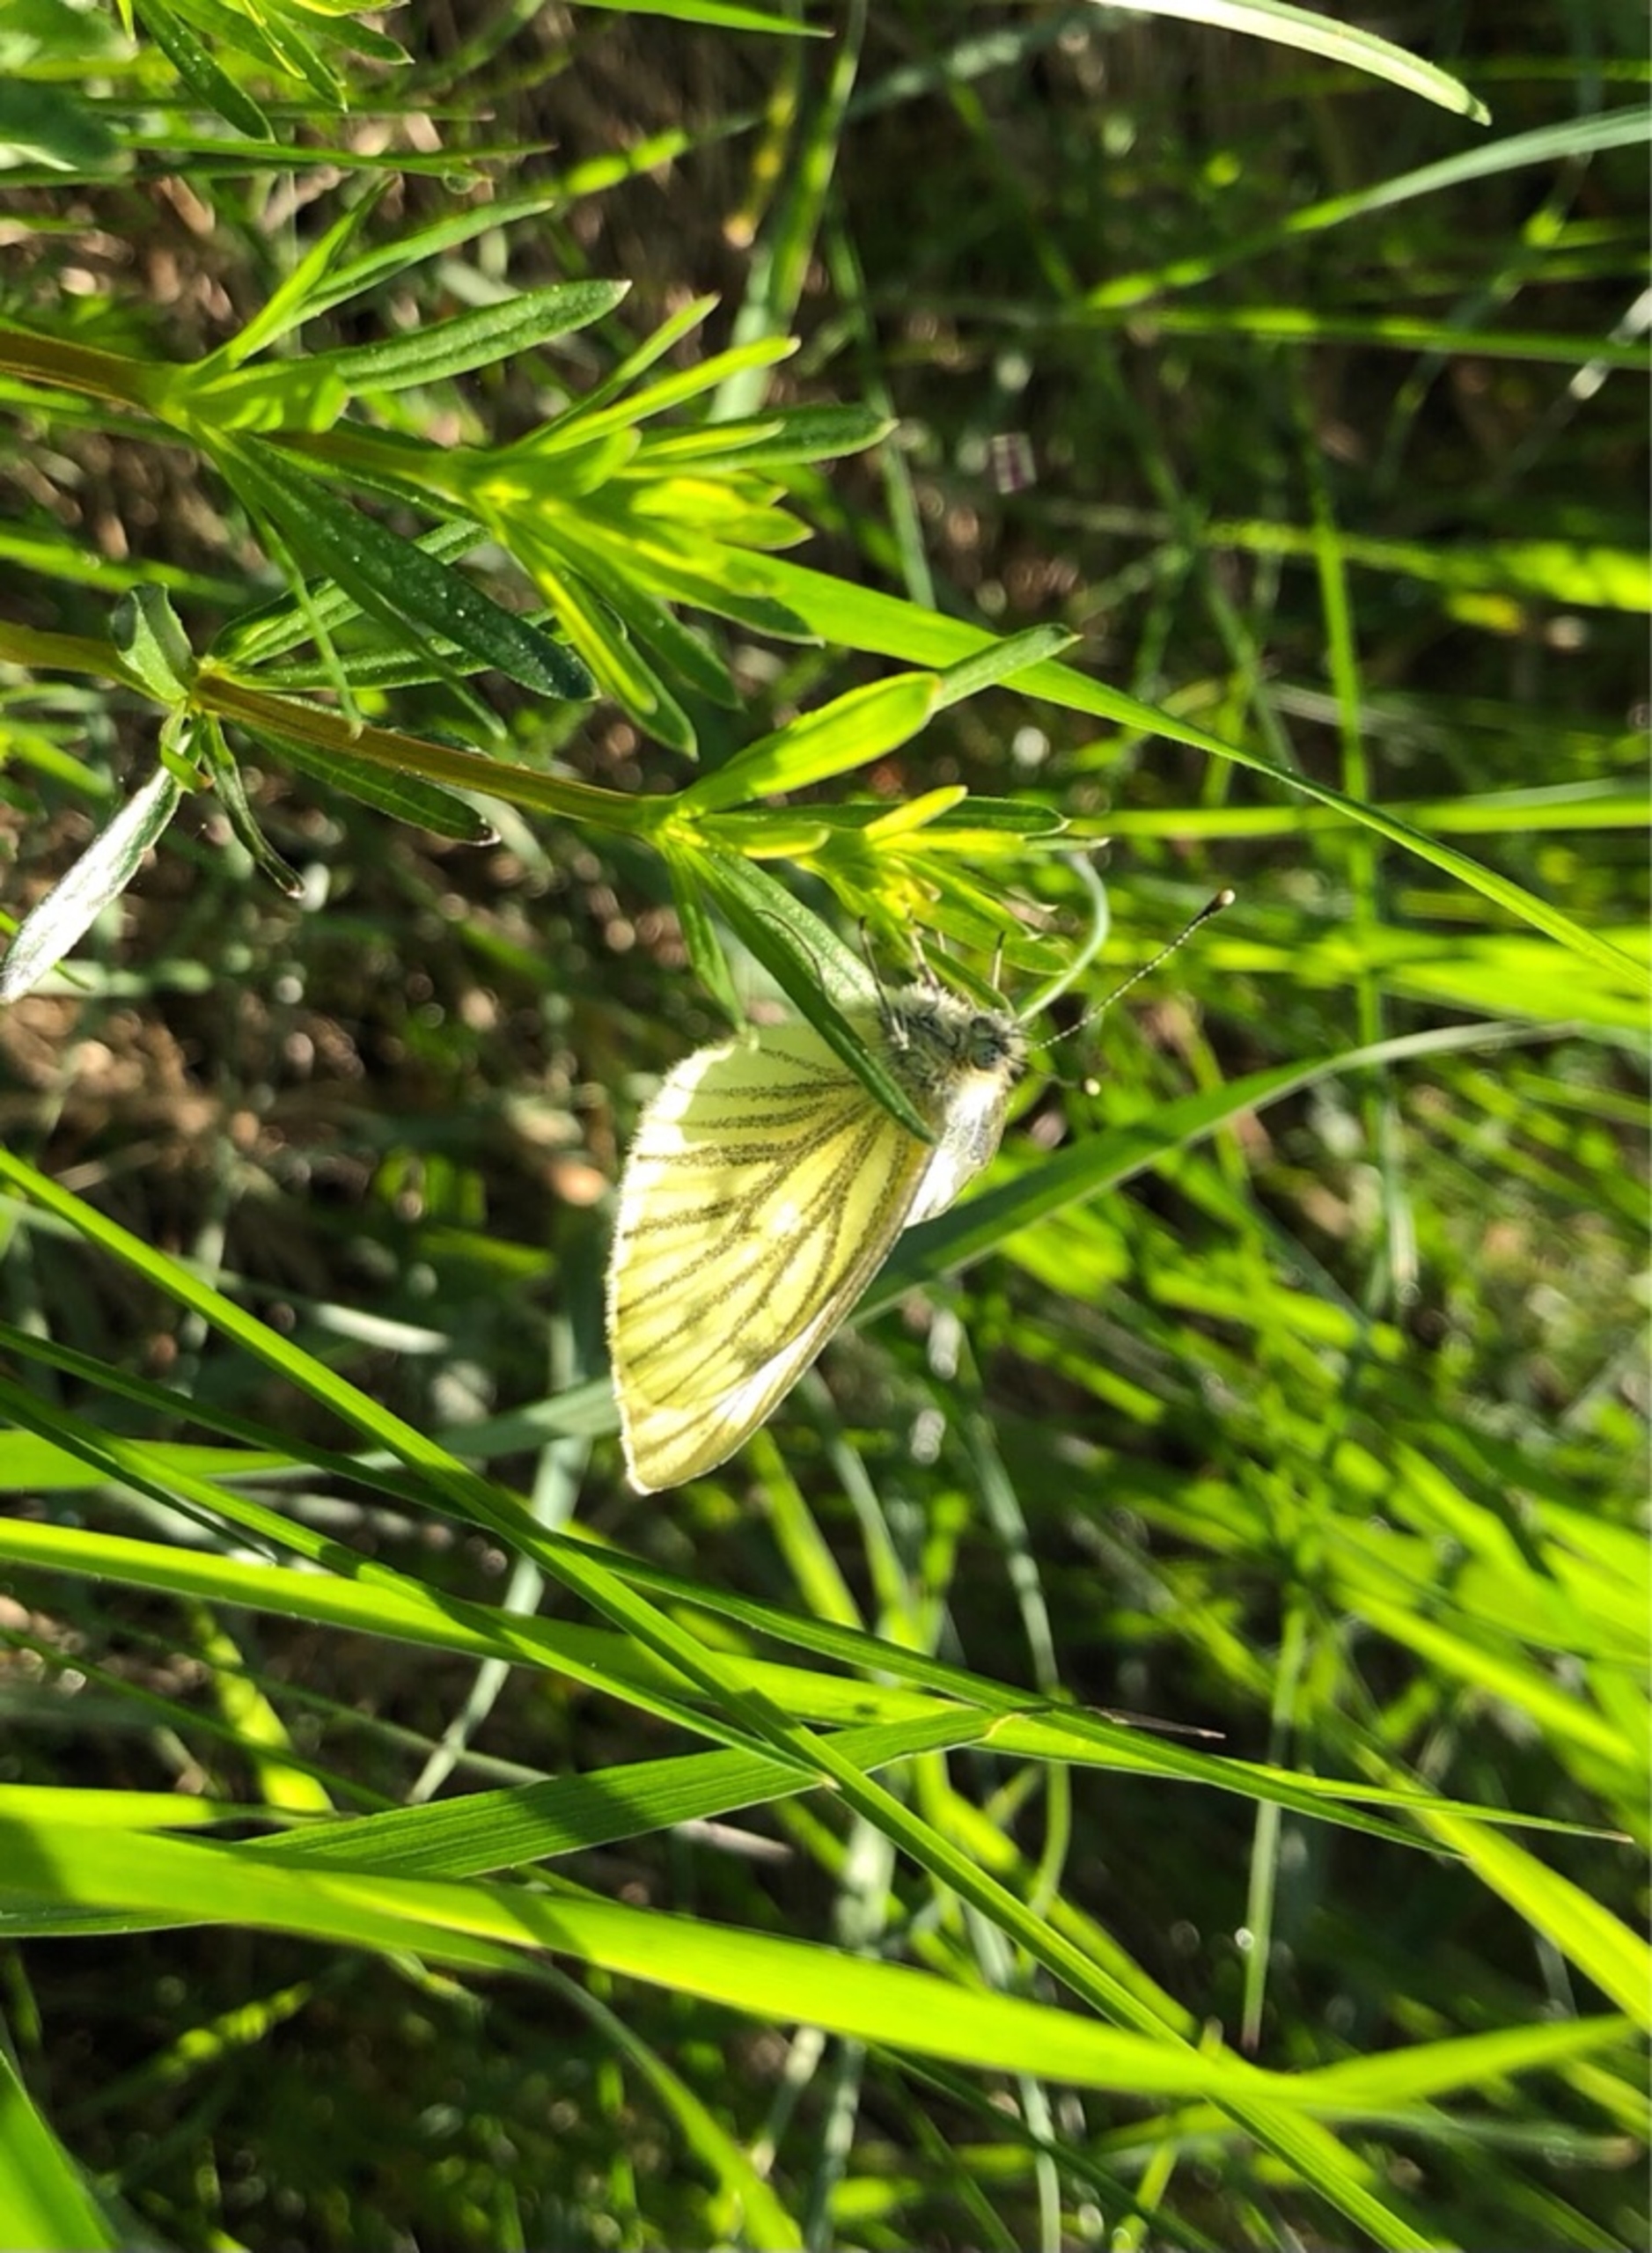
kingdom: Animalia
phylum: Arthropoda
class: Insecta
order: Lepidoptera
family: Pieridae
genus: Pieris
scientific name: Pieris napi
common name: Grønåret kålsommerfugl
